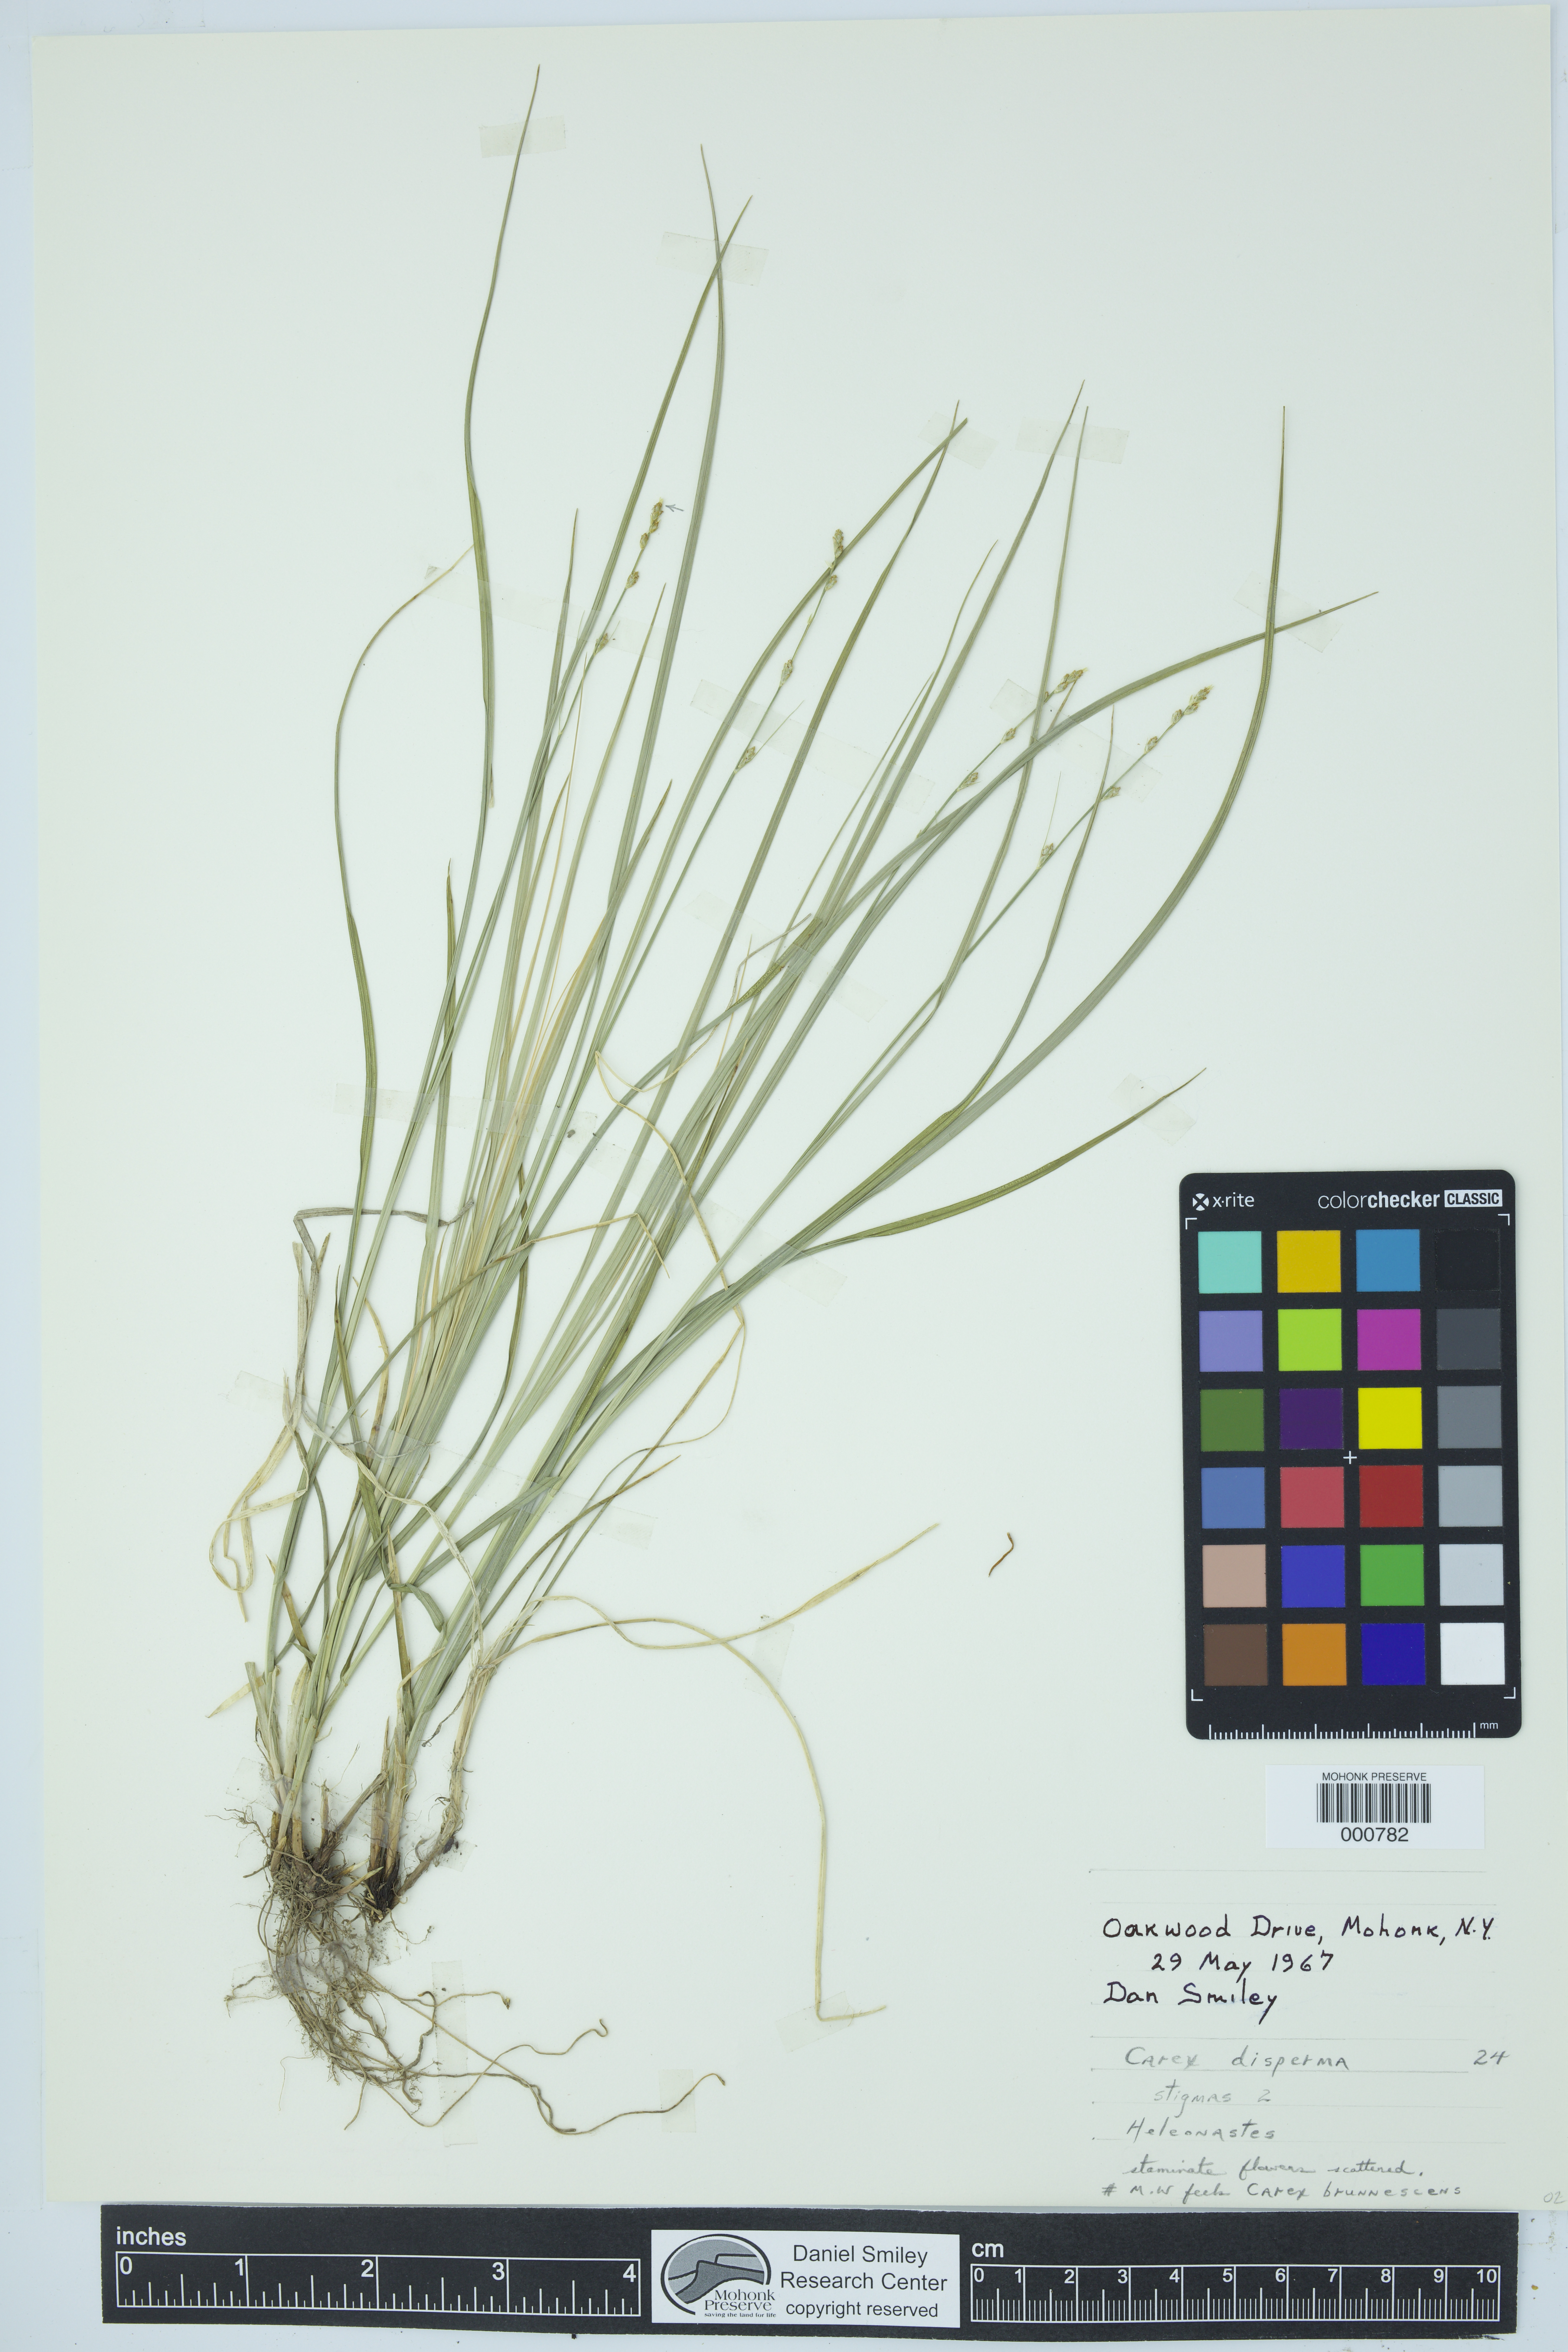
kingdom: Plantae
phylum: Tracheophyta
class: Liliopsida
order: Poales
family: Cyperaceae
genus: Carex
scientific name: Carex rosea
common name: Curly-styled wood sedge
